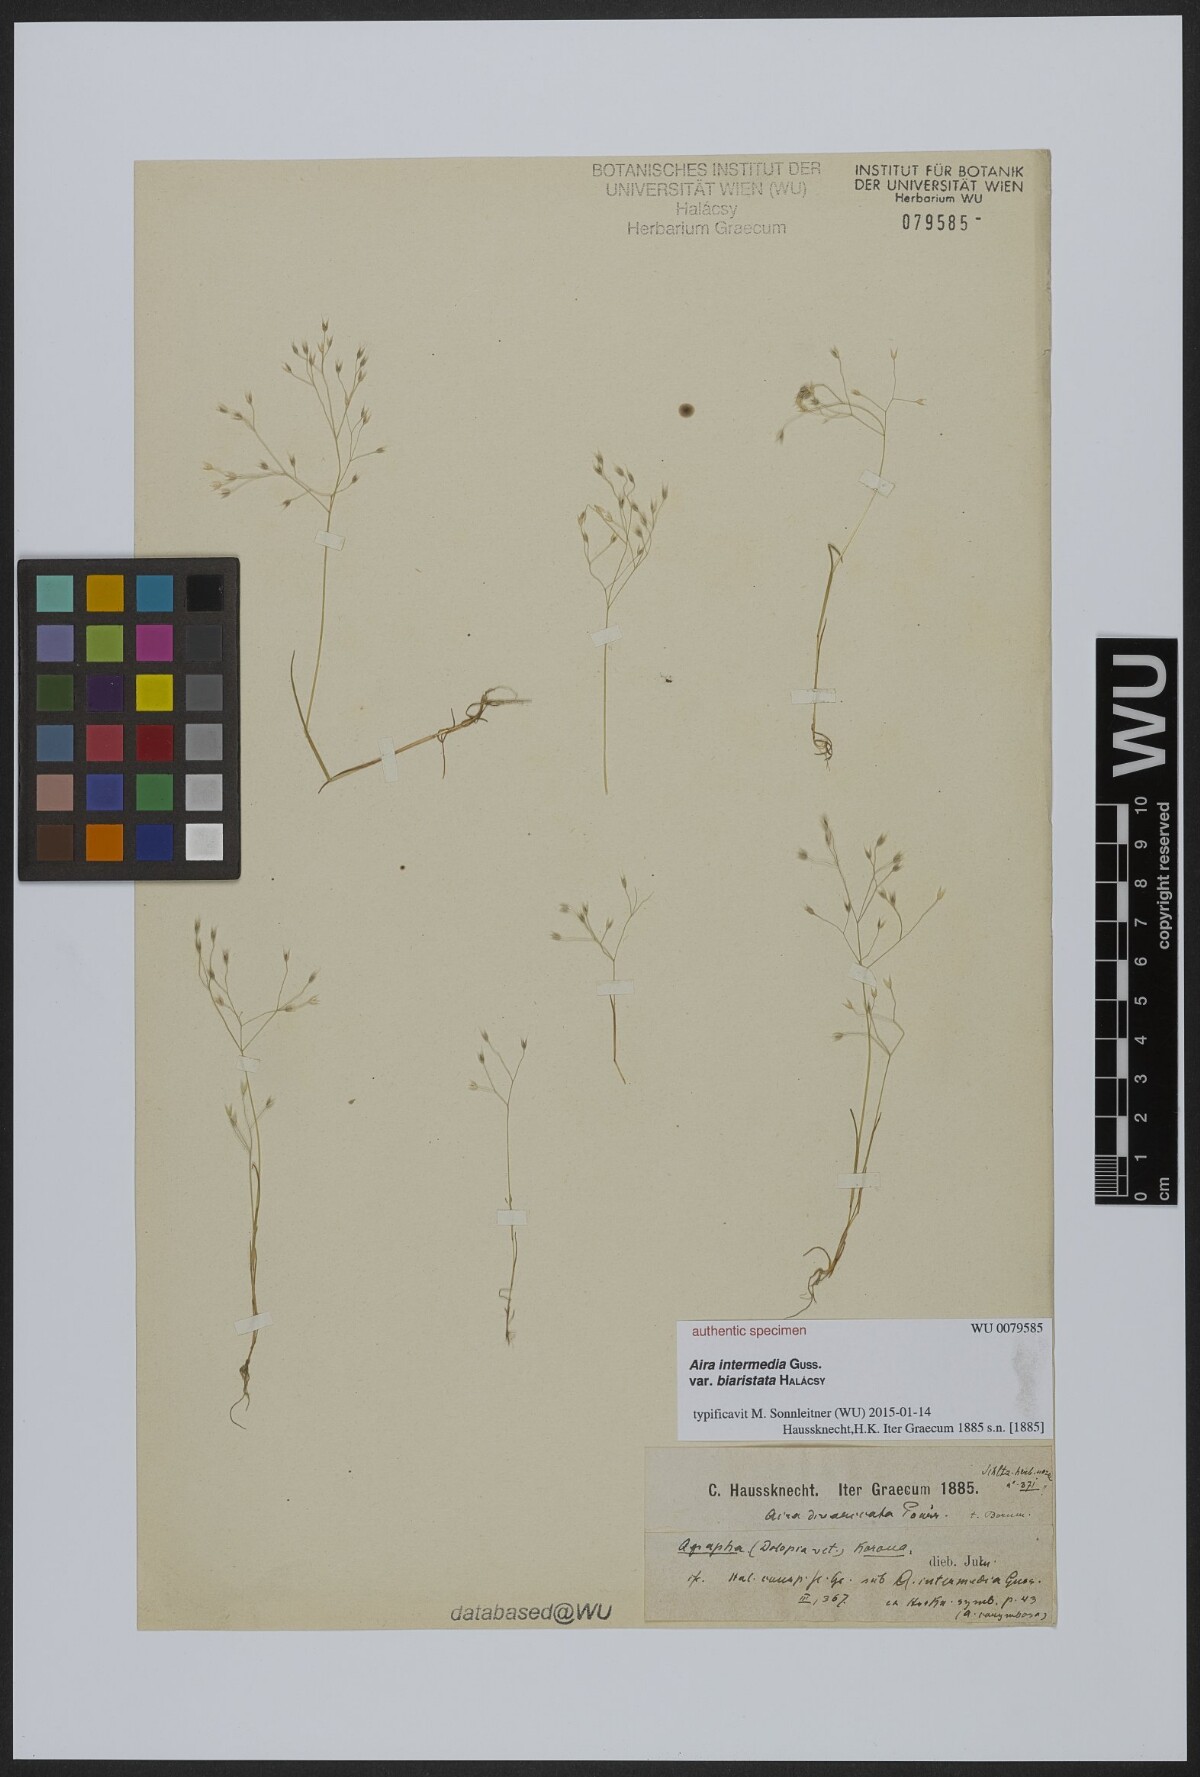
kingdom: Plantae
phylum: Tracheophyta
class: Liliopsida
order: Poales
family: Poaceae
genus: Aira
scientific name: Aira tenorei
